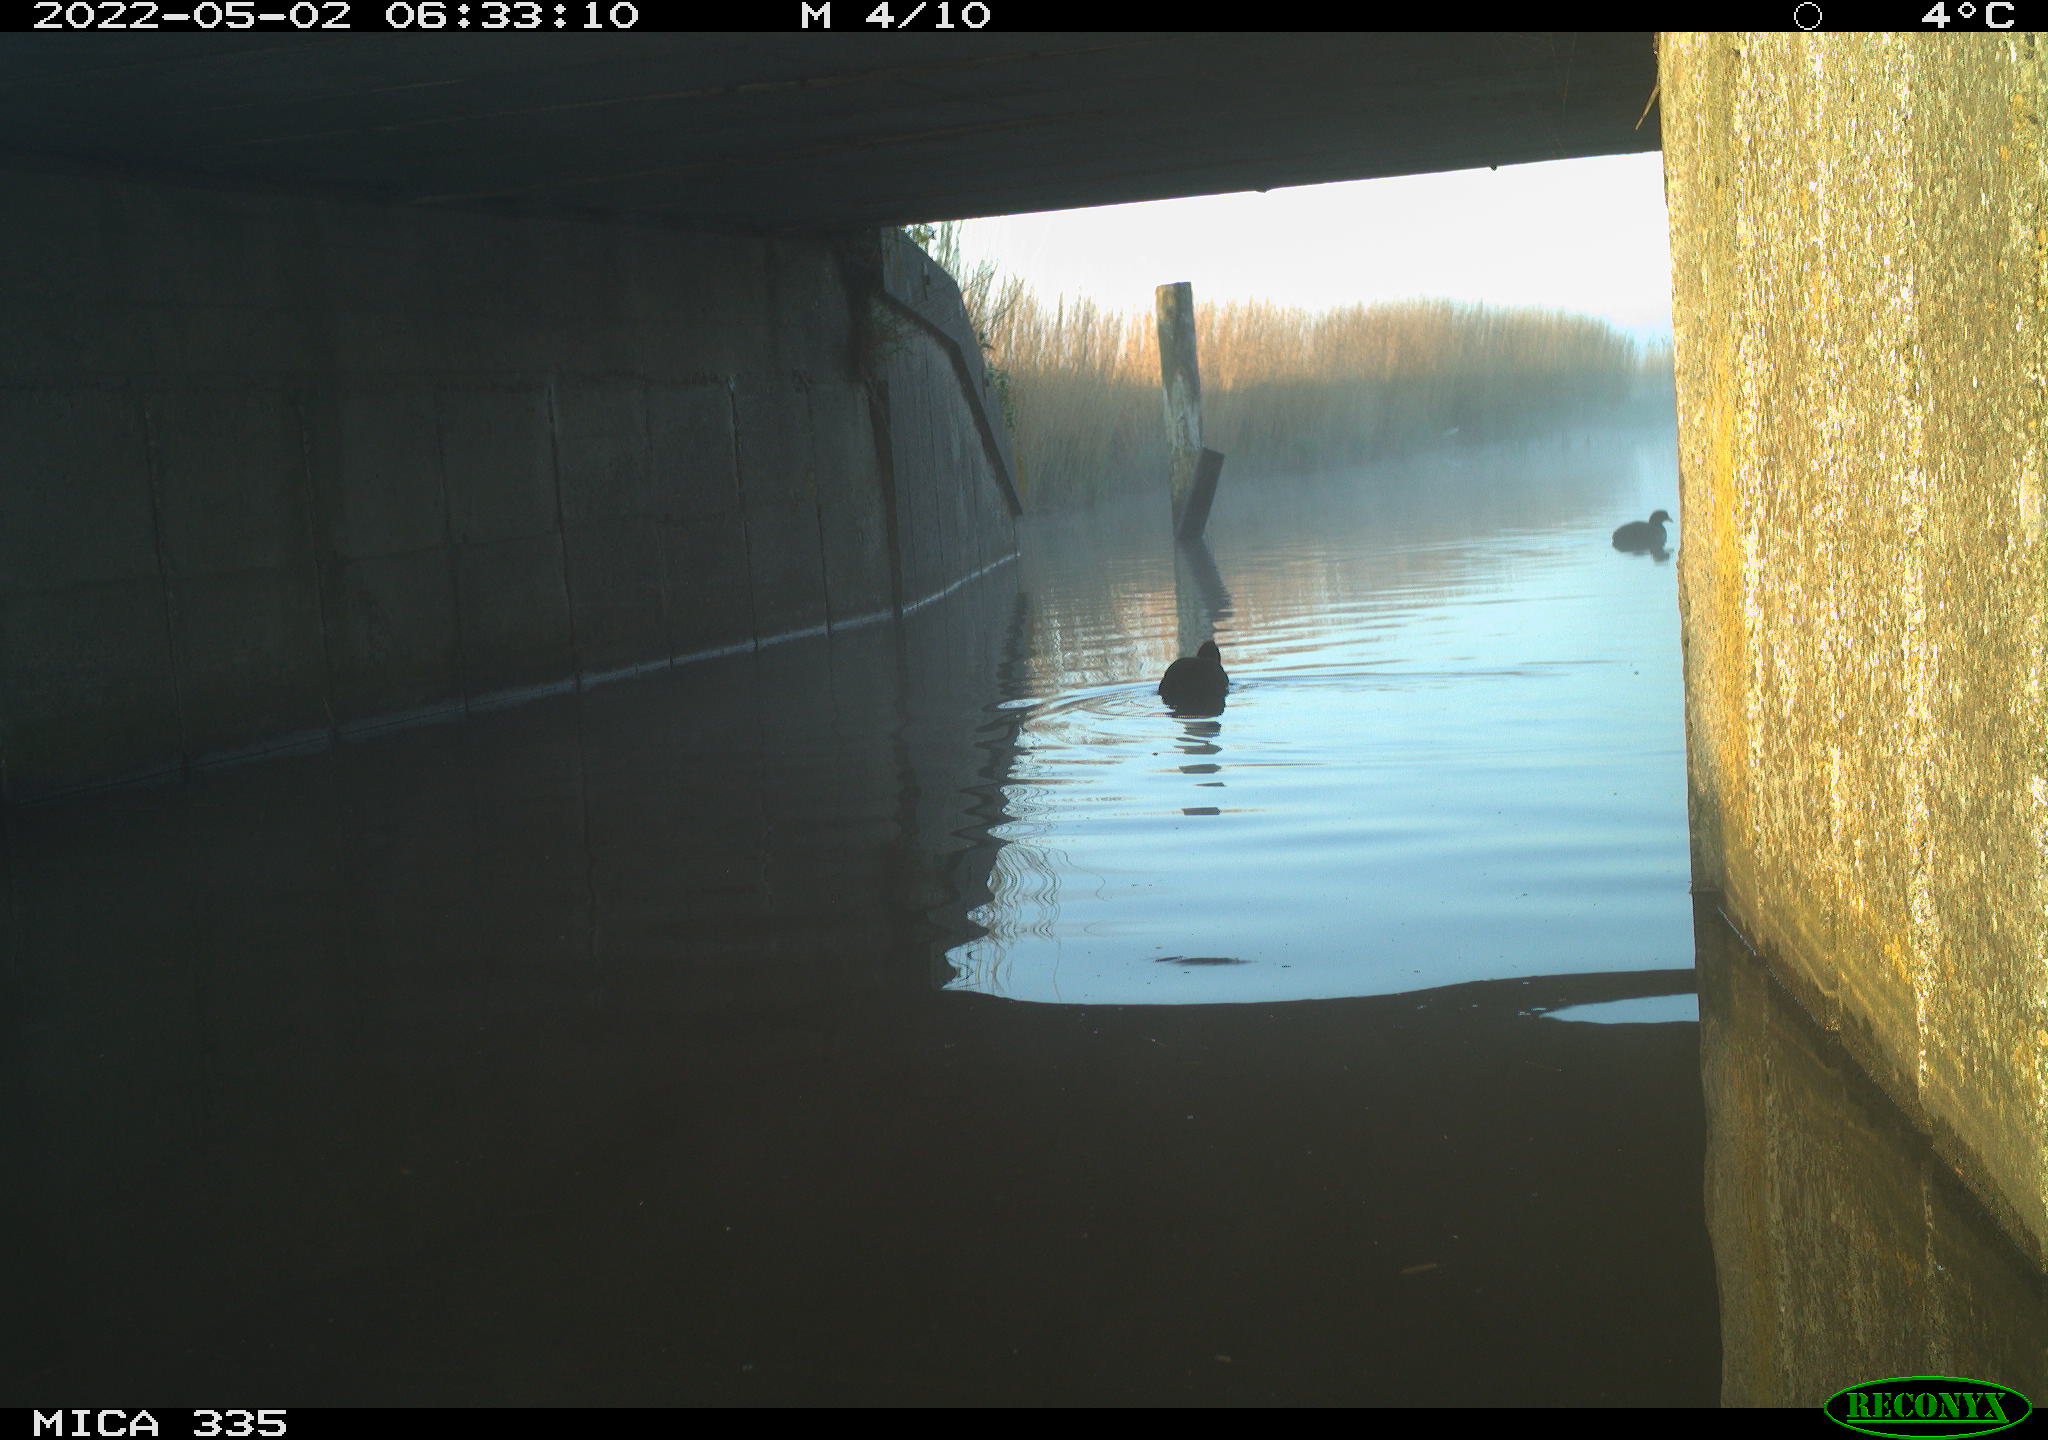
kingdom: Animalia
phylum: Chordata
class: Aves
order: Gruiformes
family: Rallidae
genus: Fulica
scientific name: Fulica atra
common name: Eurasian coot
